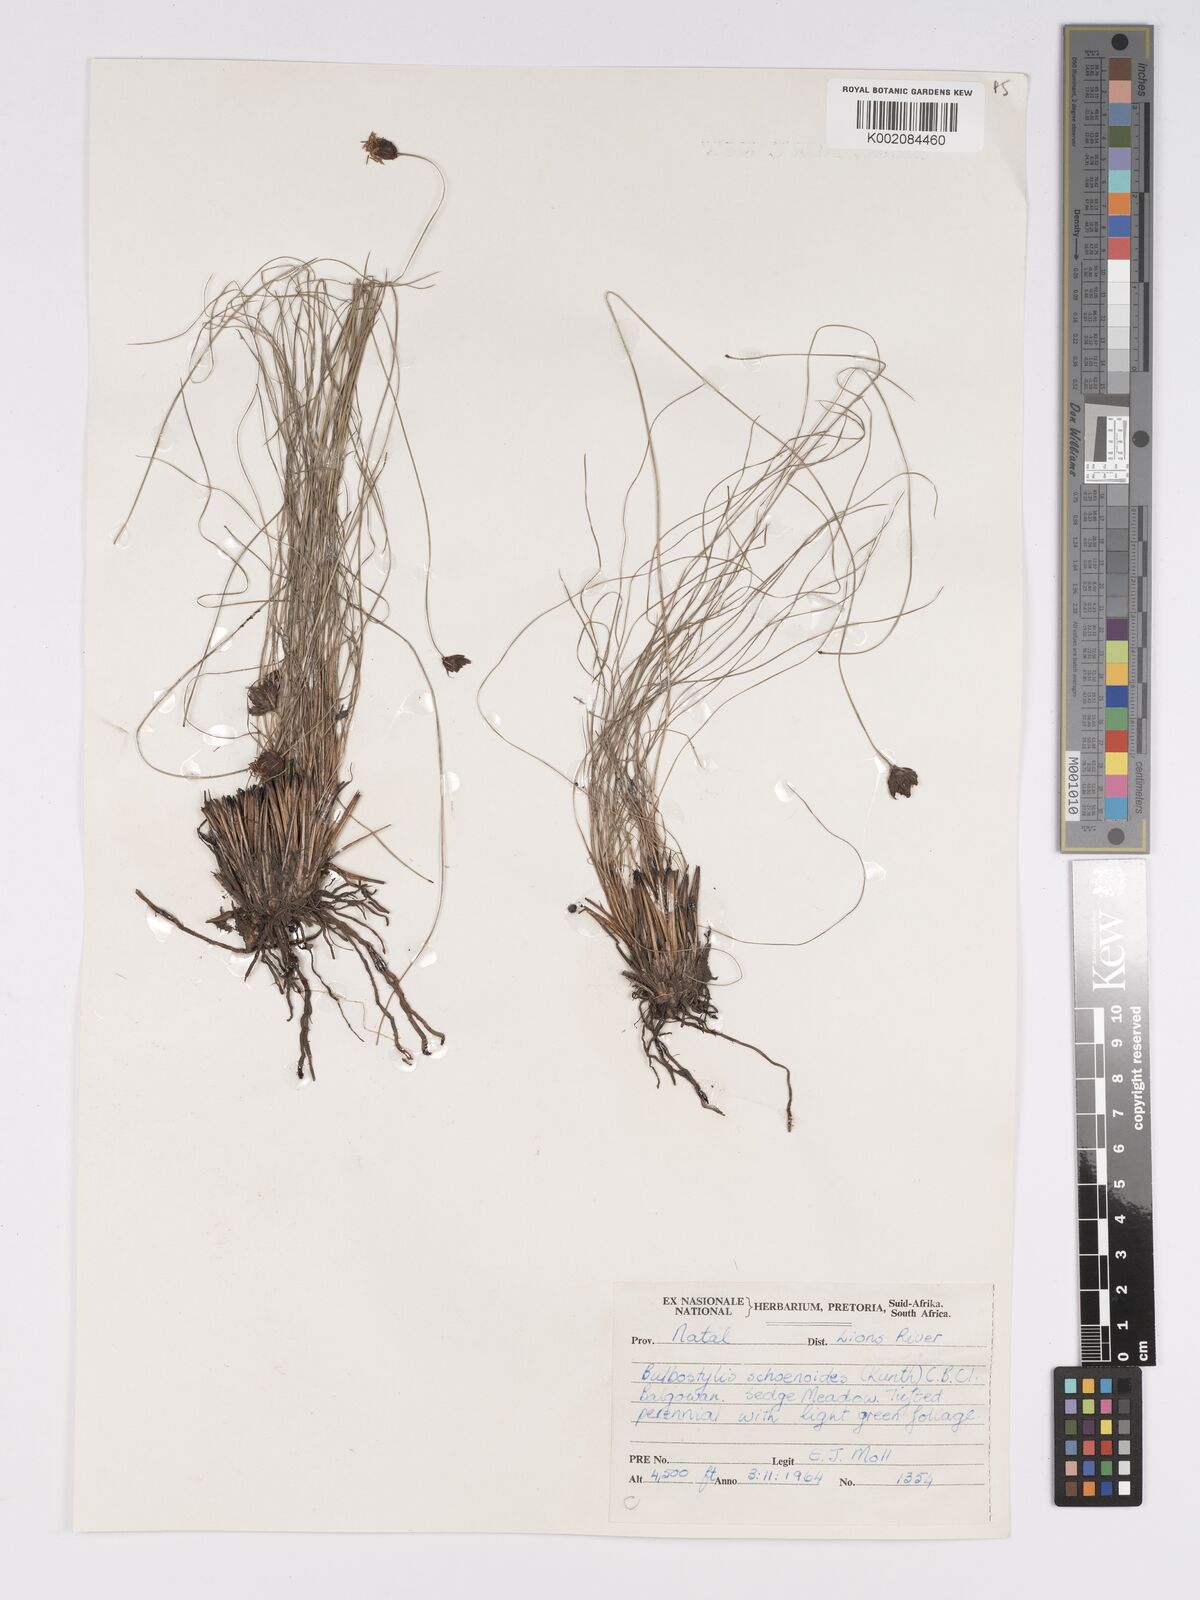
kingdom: Plantae
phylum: Tracheophyta
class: Liliopsida
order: Poales
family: Cyperaceae
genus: Bulbostylis
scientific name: Bulbostylis schoenoides
